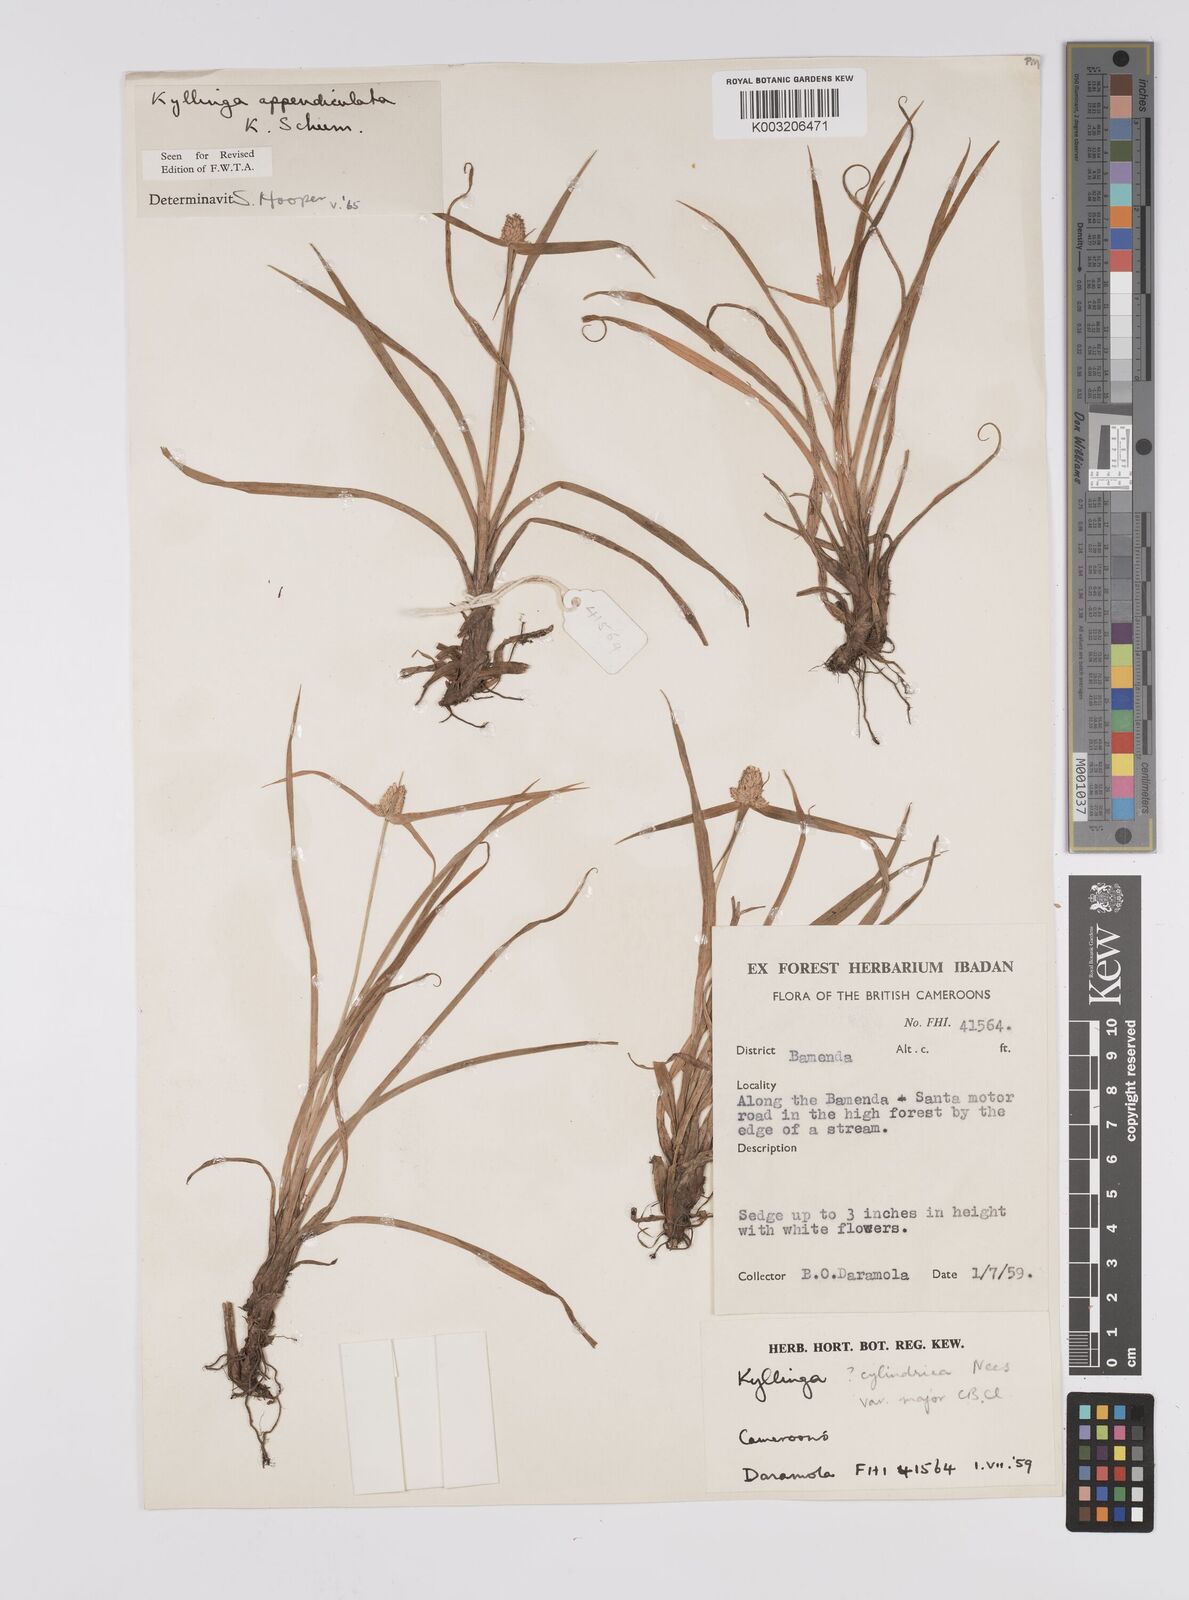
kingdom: Plantae
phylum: Tracheophyta
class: Liliopsida
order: Poales
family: Cyperaceae
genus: Cyperus
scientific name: Cyperus sesquiflorus
